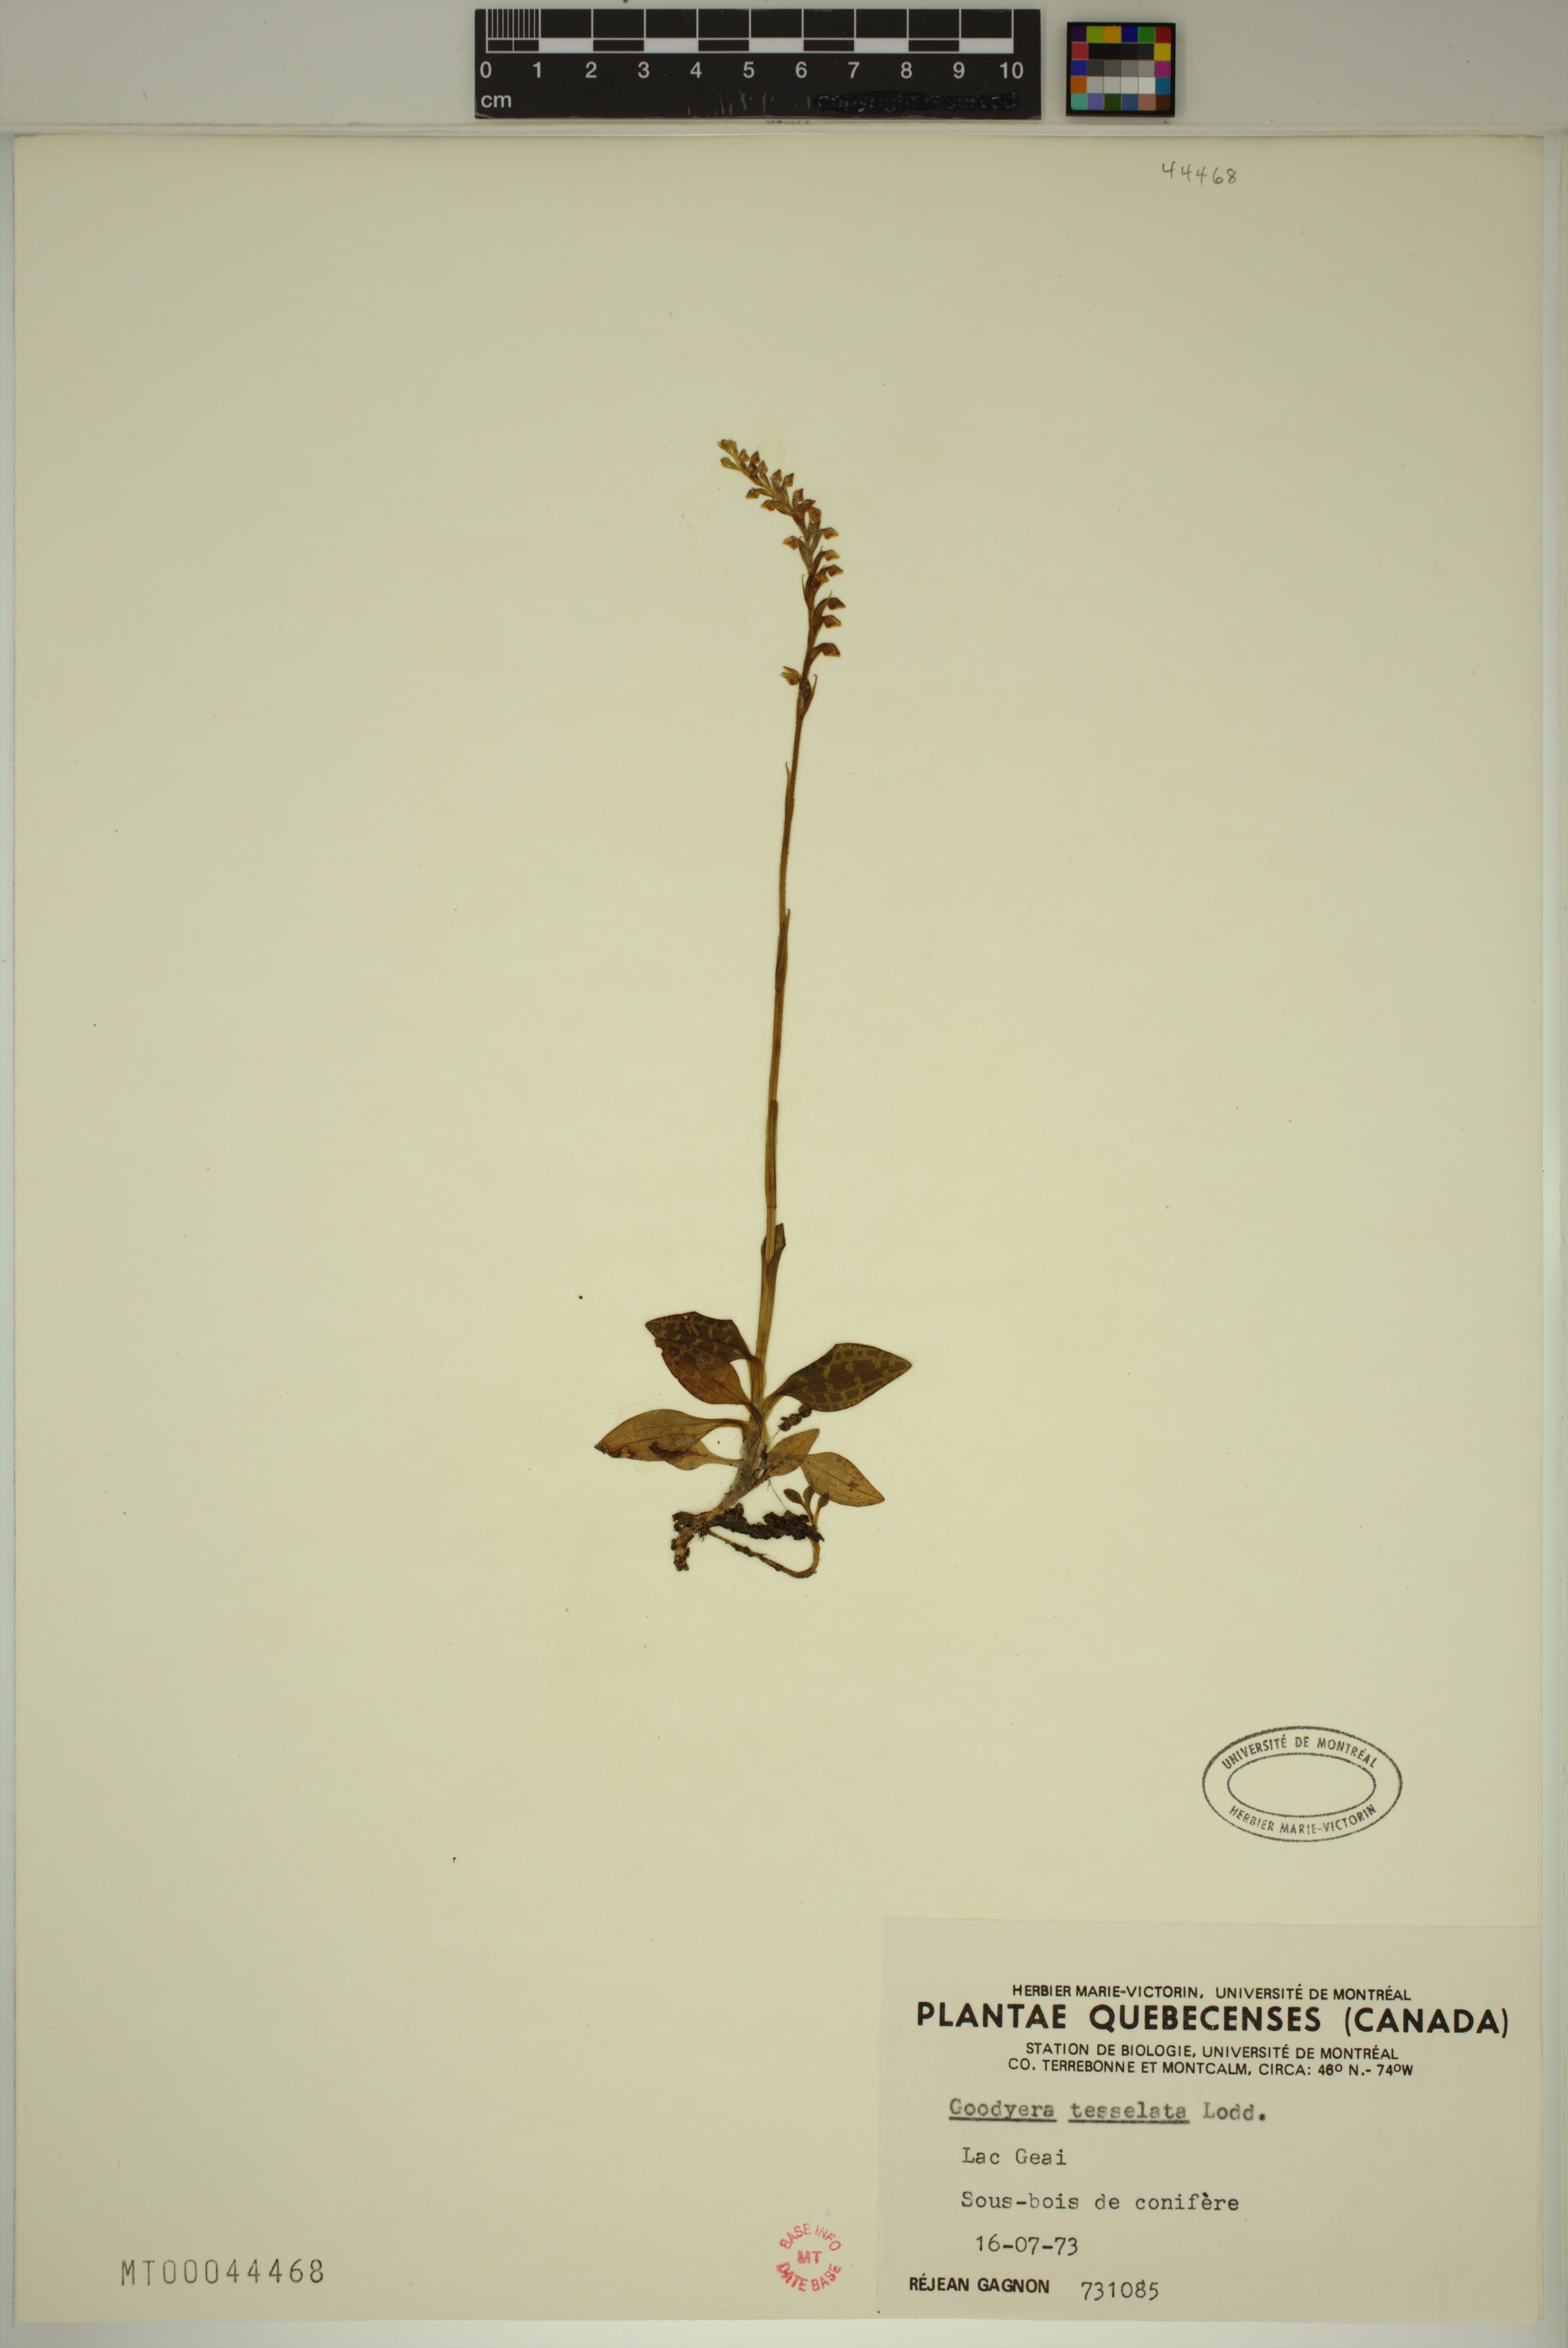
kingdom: Plantae
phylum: Tracheophyta
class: Liliopsida
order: Asparagales
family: Orchidaceae
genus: Goodyera
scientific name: Goodyera tesselata
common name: Checkered rattlesnake-plantain
